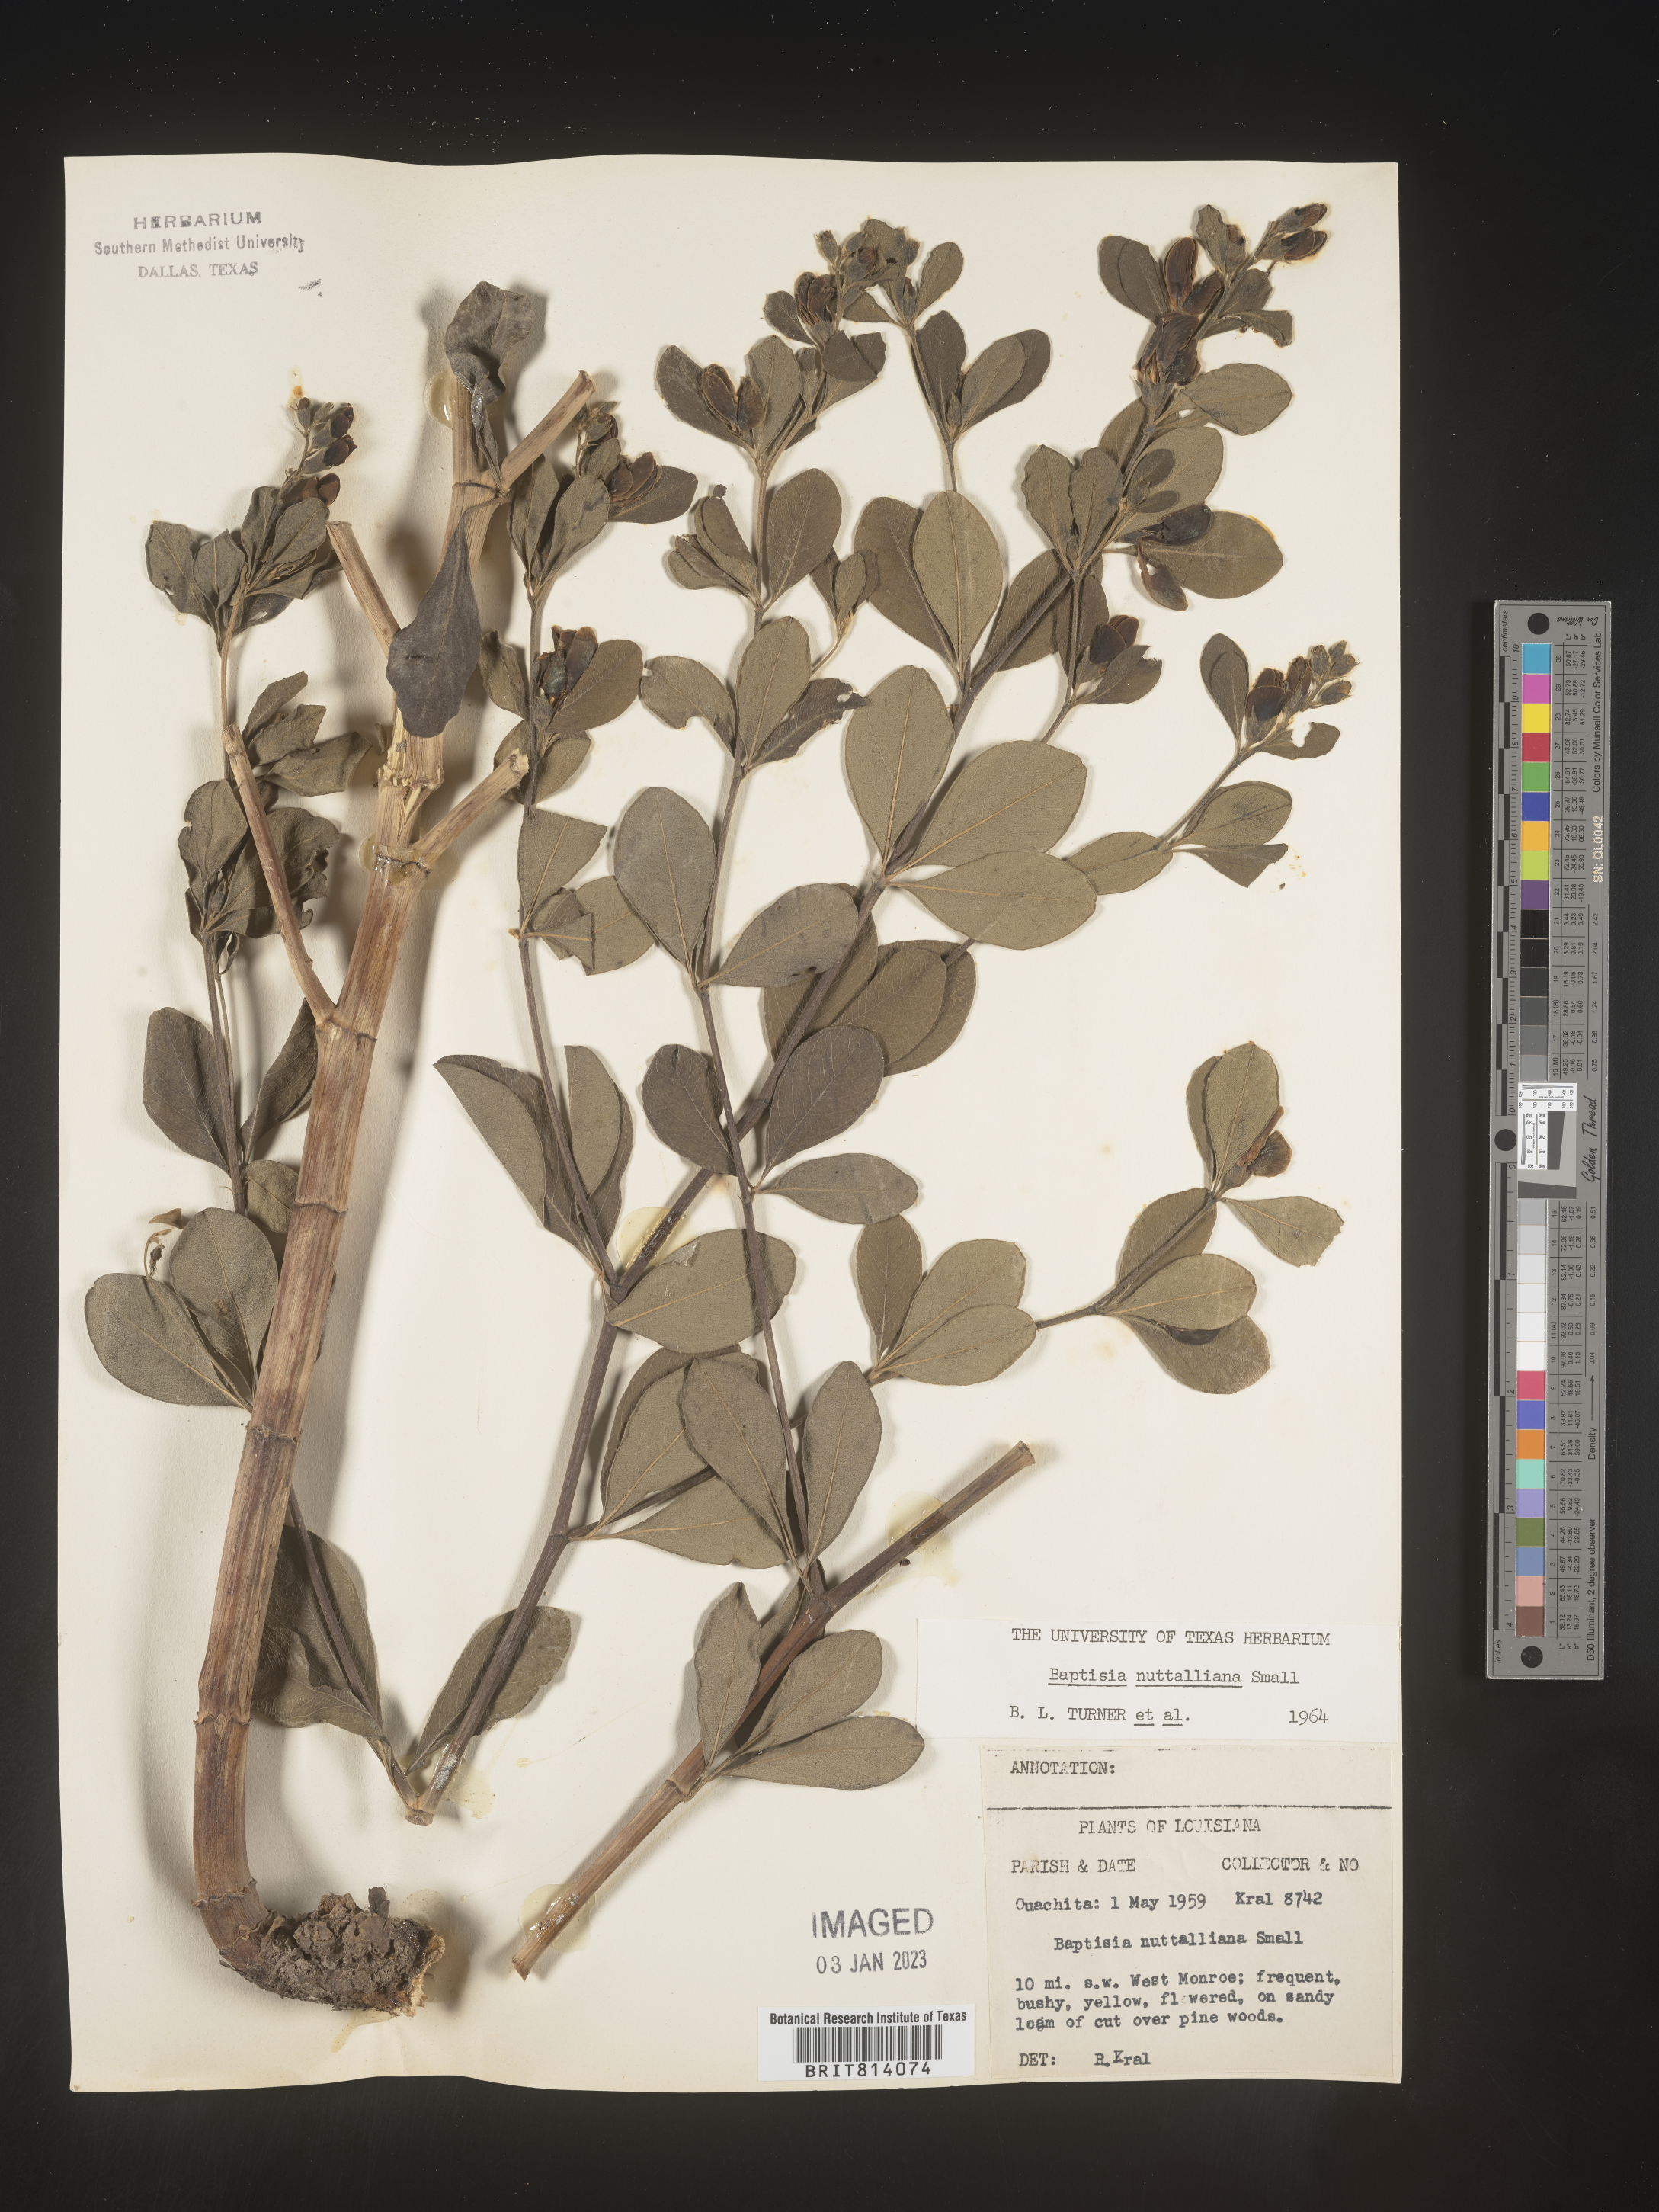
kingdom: Plantae
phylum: Tracheophyta
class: Magnoliopsida
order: Fabales
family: Fabaceae
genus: Baptisia
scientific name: Baptisia nuttalliana
